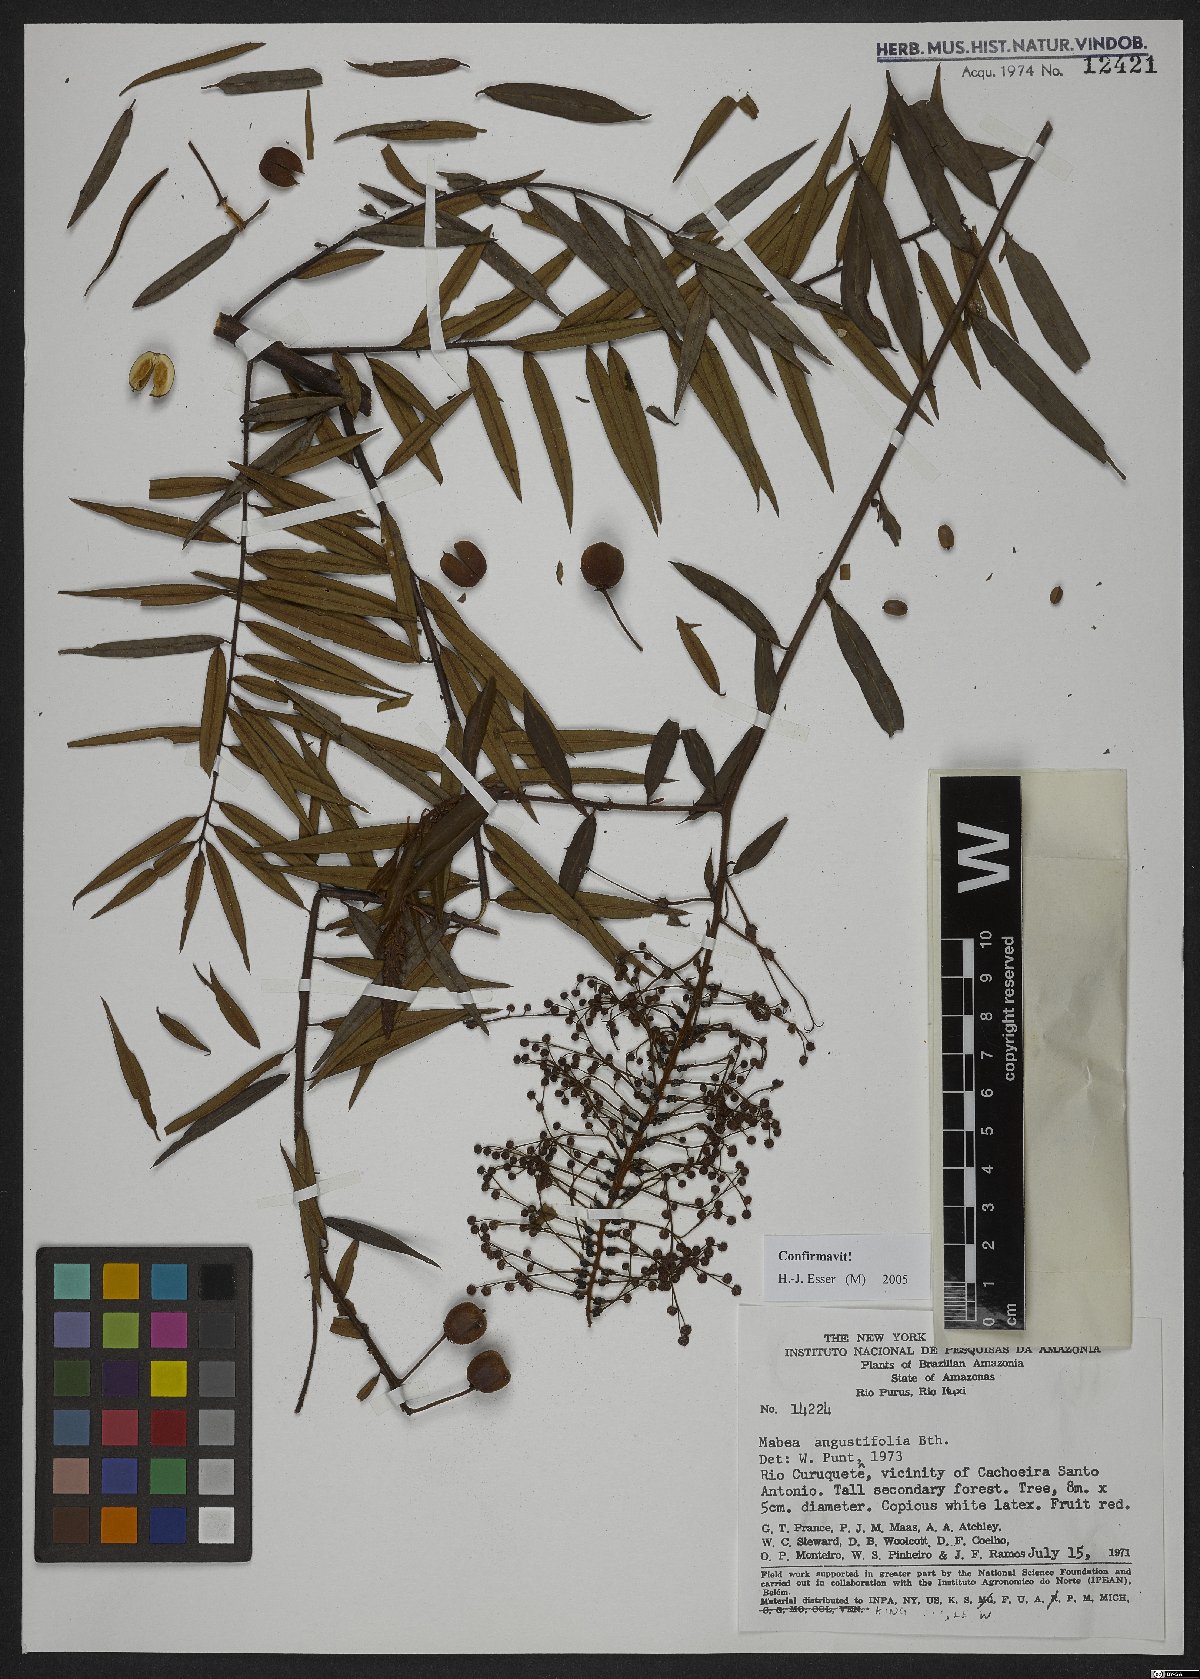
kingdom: Plantae
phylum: Tracheophyta
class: Magnoliopsida
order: Malpighiales
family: Euphorbiaceae
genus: Mabea
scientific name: Mabea angustifolia
